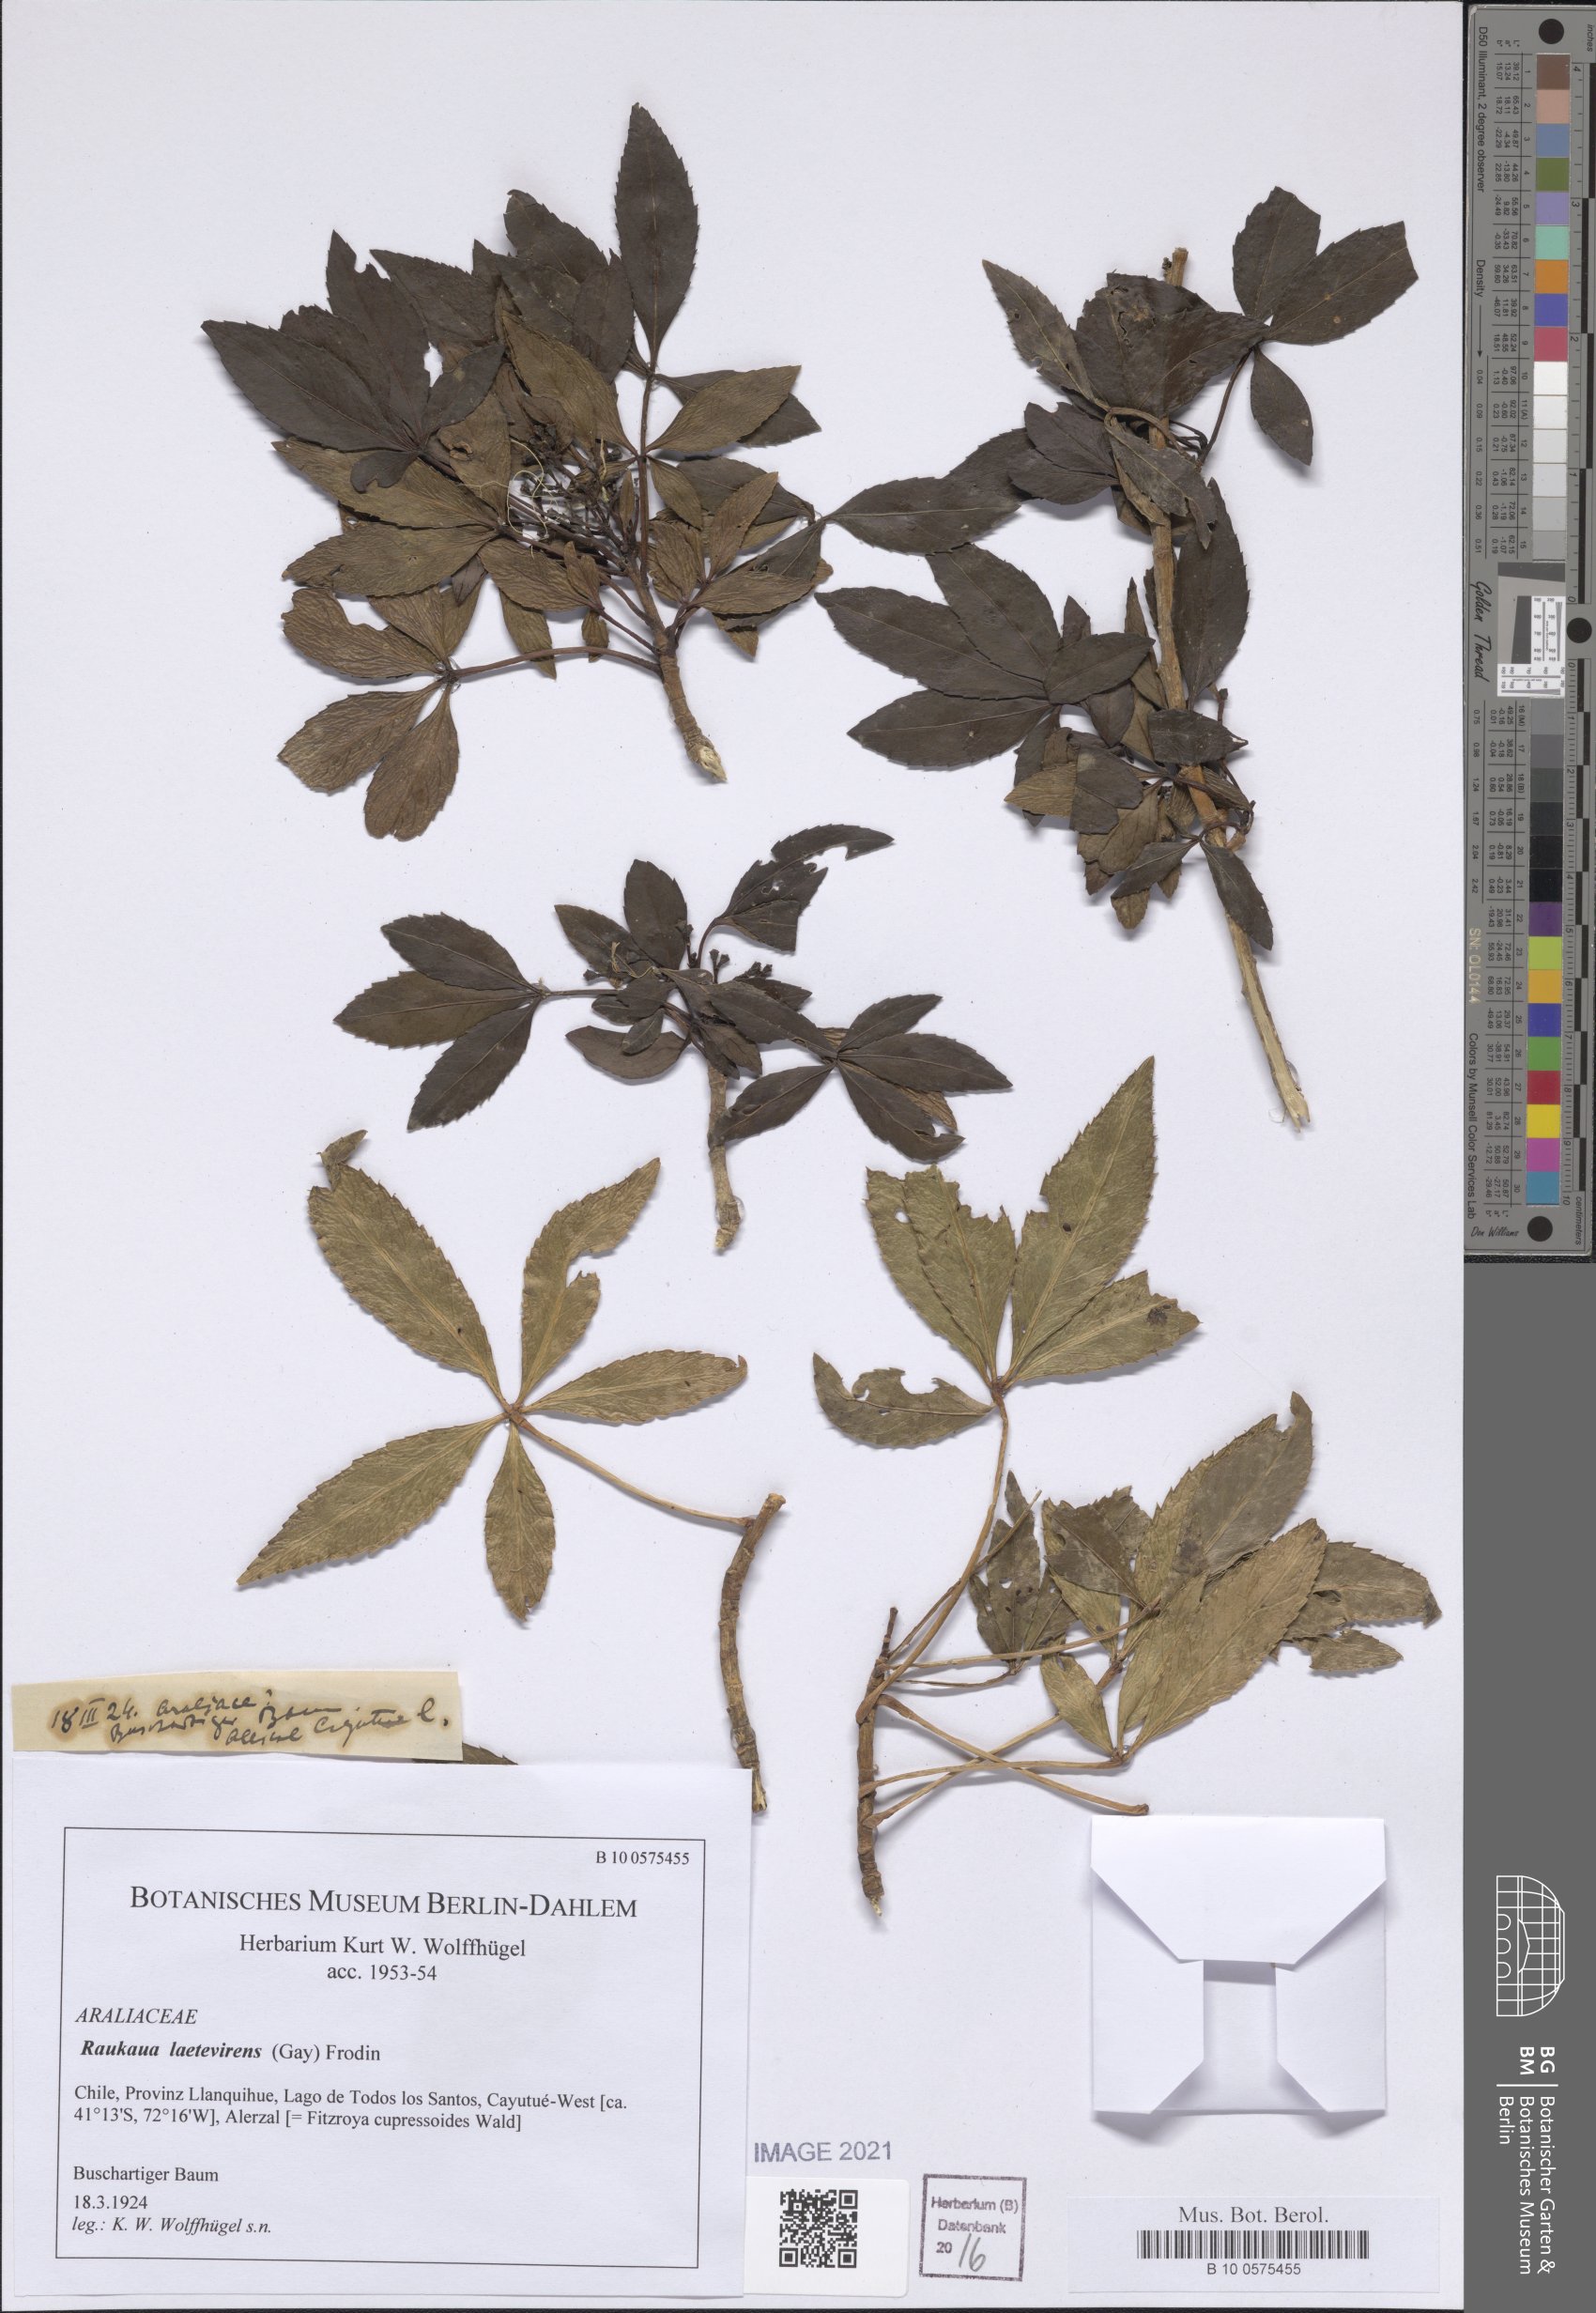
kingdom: Plantae
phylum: Tracheophyta
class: Magnoliopsida
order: Apiales
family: Araliaceae
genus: Raukaua
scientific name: Raukaua laetevirens
